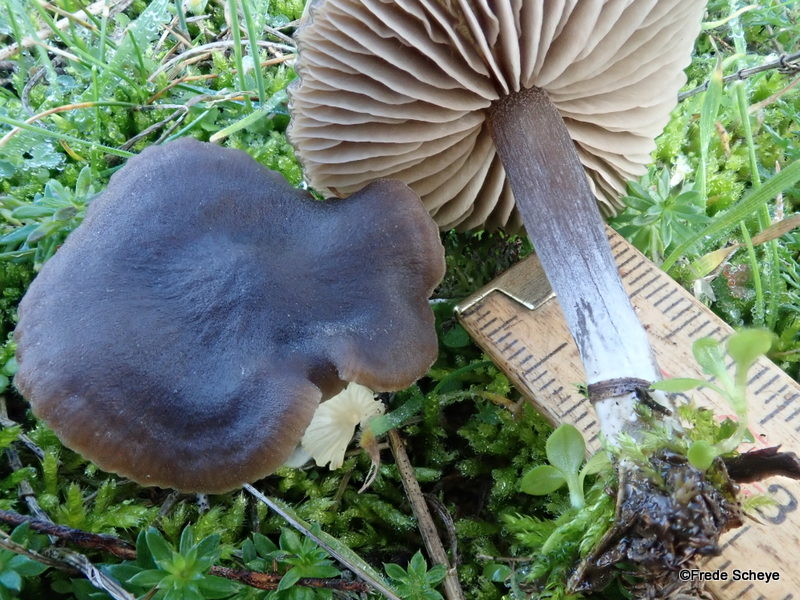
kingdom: Fungi
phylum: Basidiomycota
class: Agaricomycetes
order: Agaricales
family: Entolomataceae
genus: Entoloma
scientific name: Entoloma vindobonense
